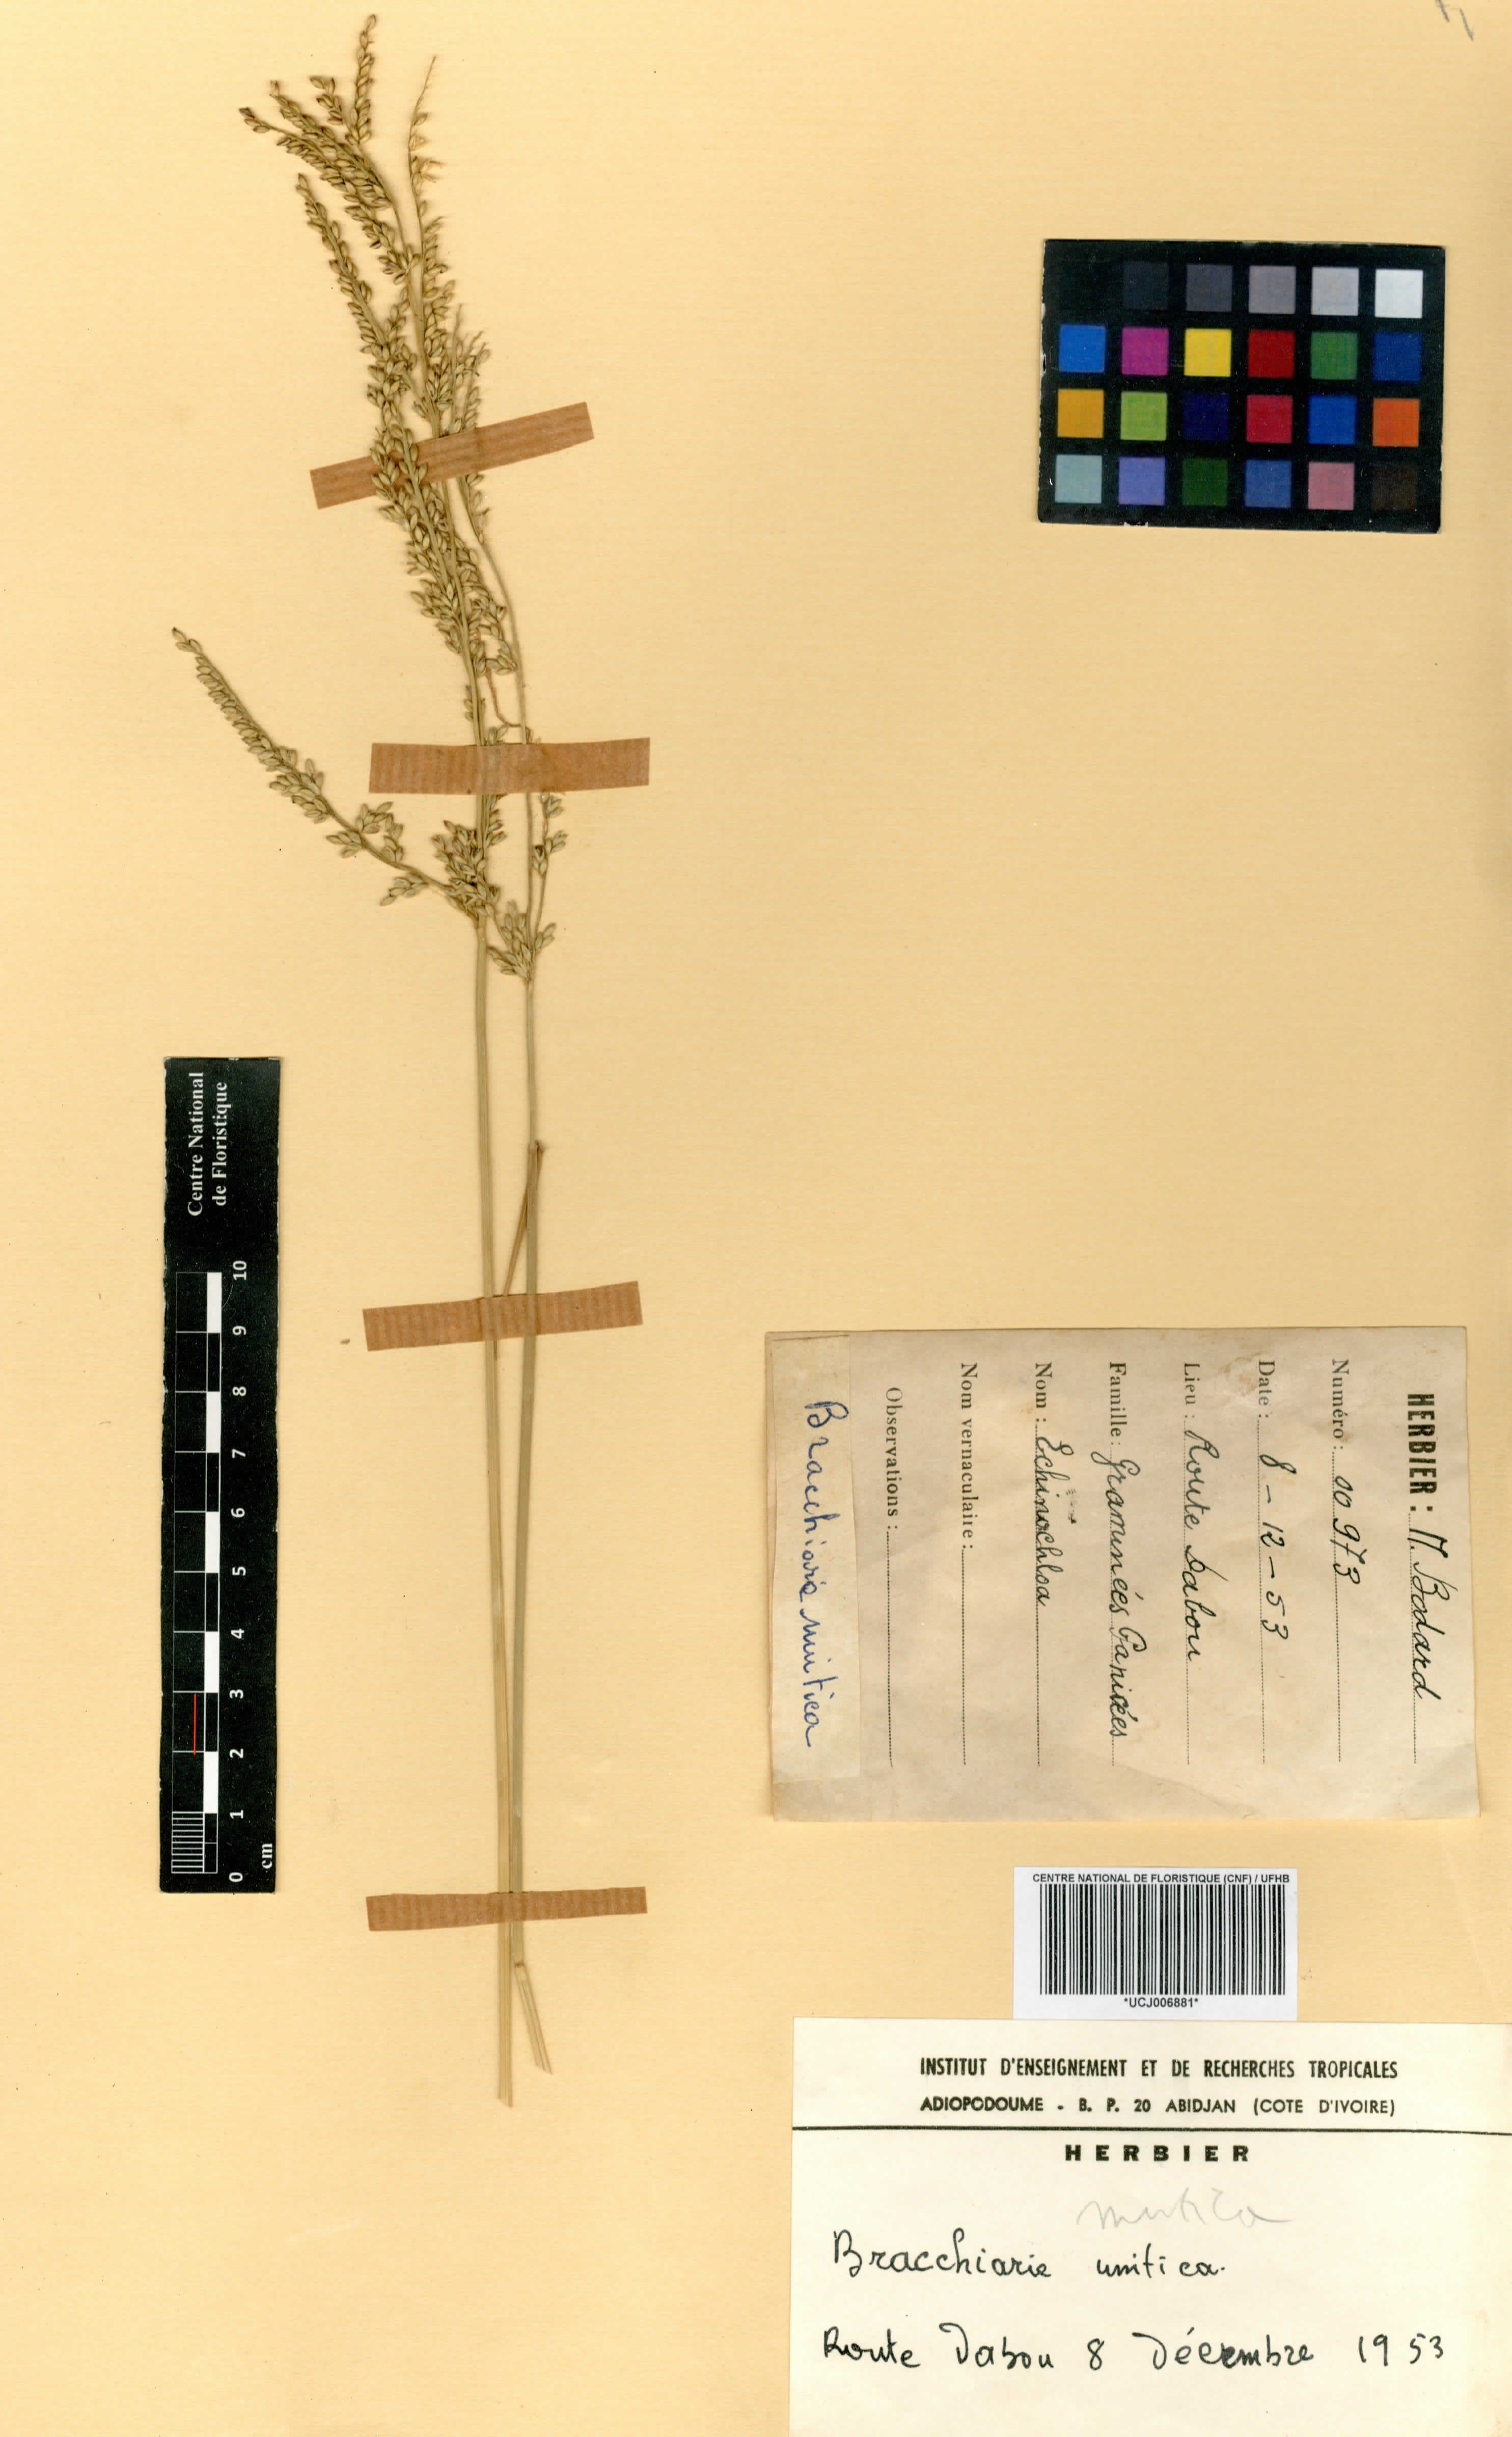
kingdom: Plantae
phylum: Tracheophyta
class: Liliopsida
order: Poales
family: Poaceae
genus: Urochloa
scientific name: Urochloa mutica
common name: Para grass
